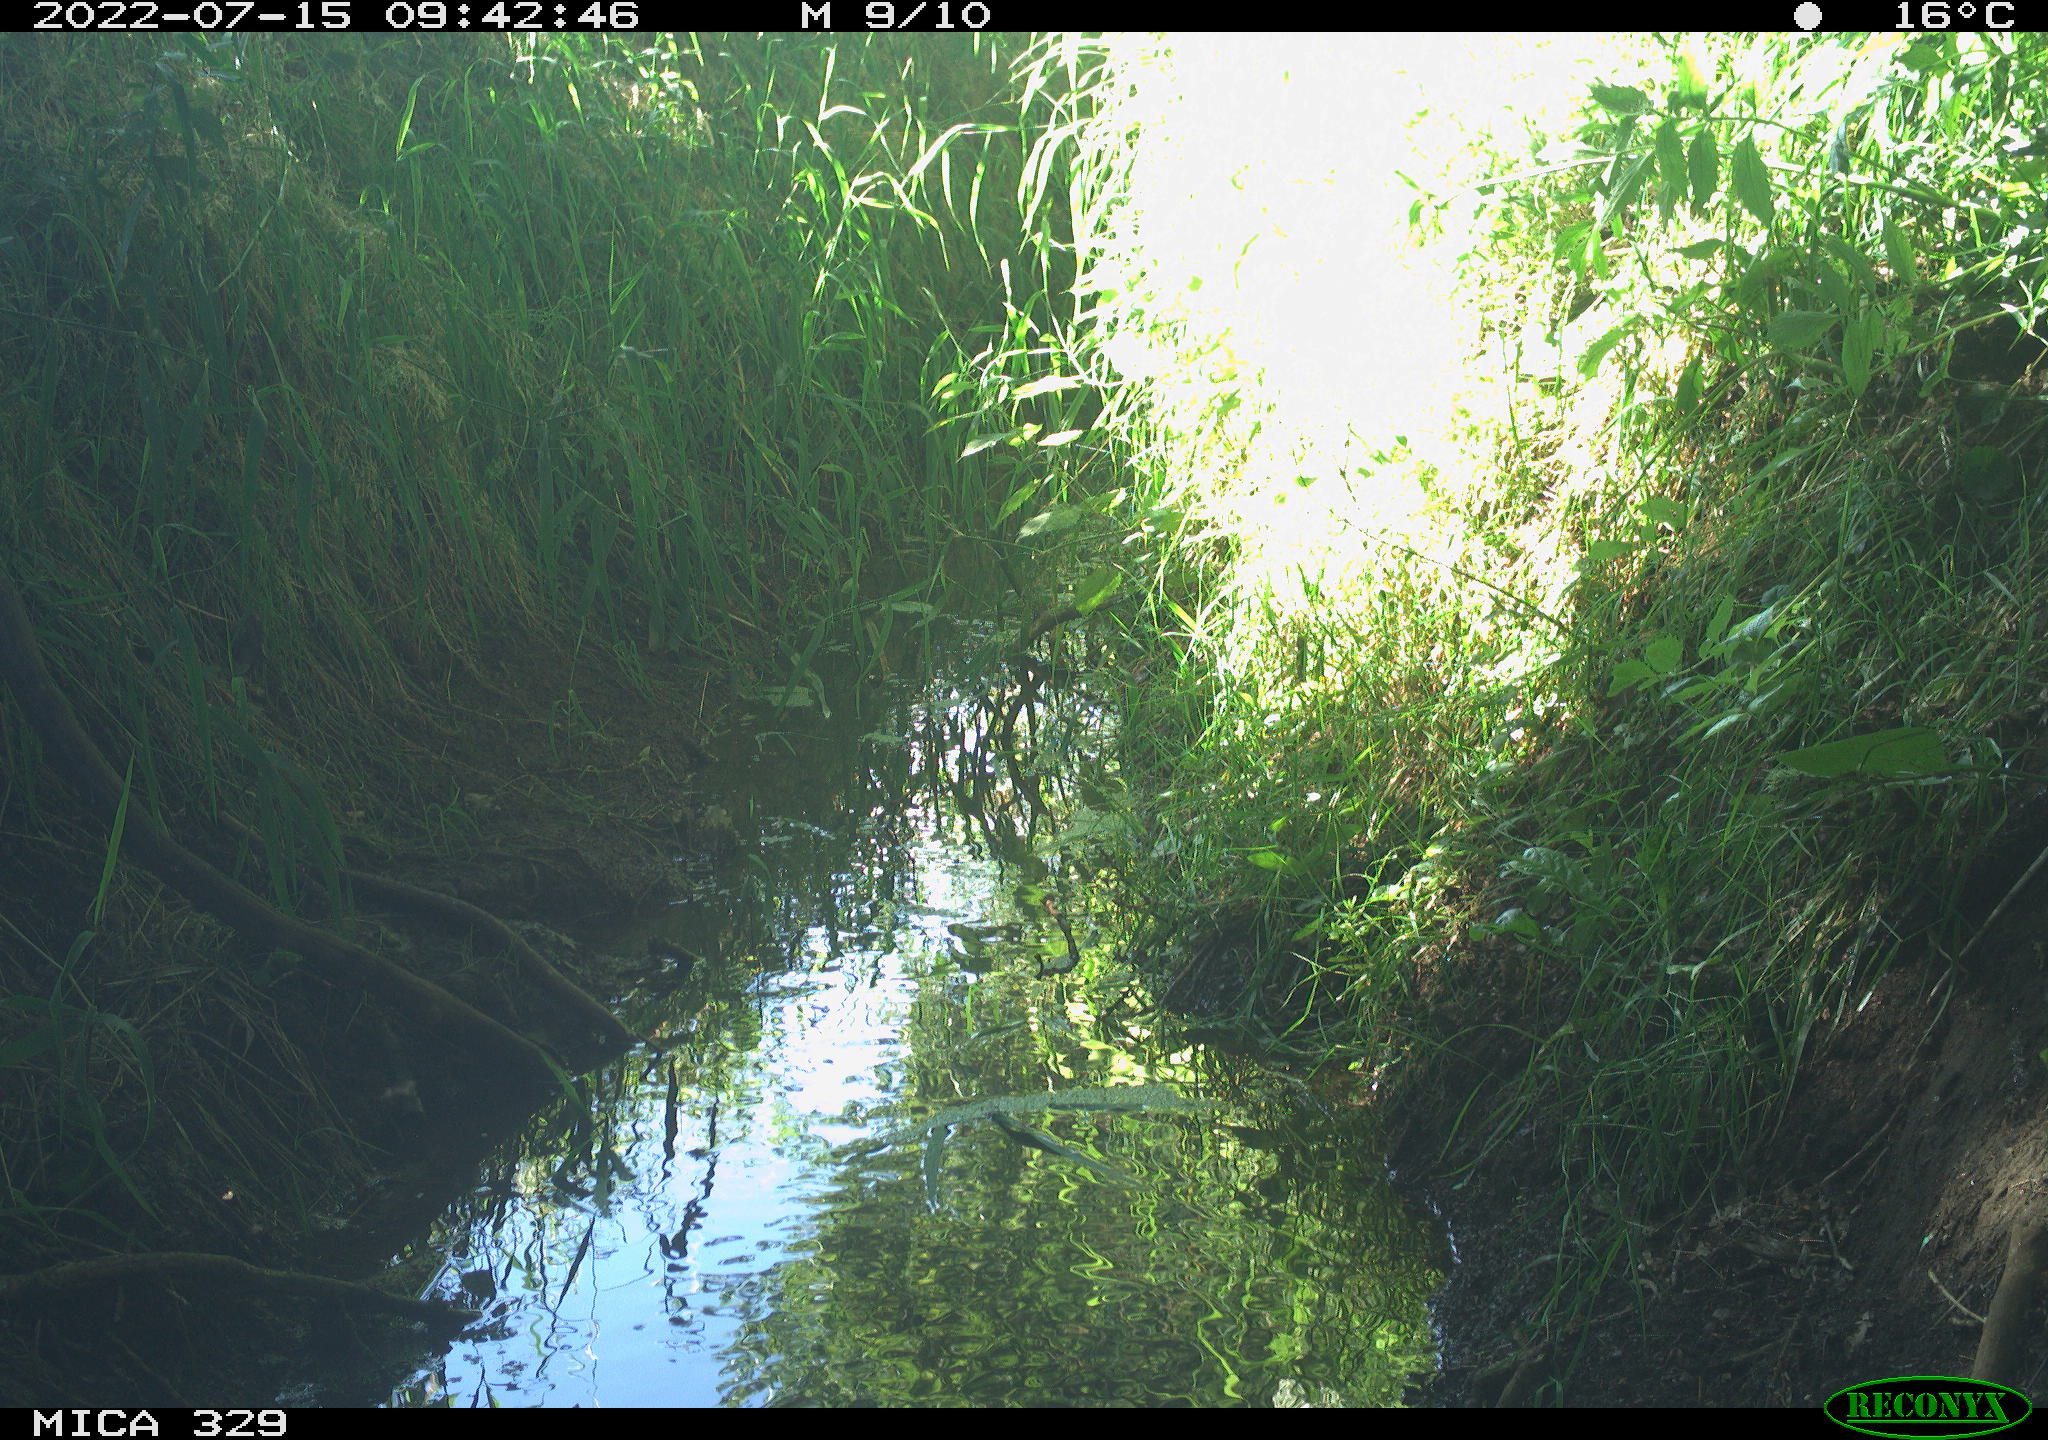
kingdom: Animalia
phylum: Chordata
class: Mammalia
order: Carnivora
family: Mustelidae
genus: Mustela
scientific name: Mustela putorius
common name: European polecat
